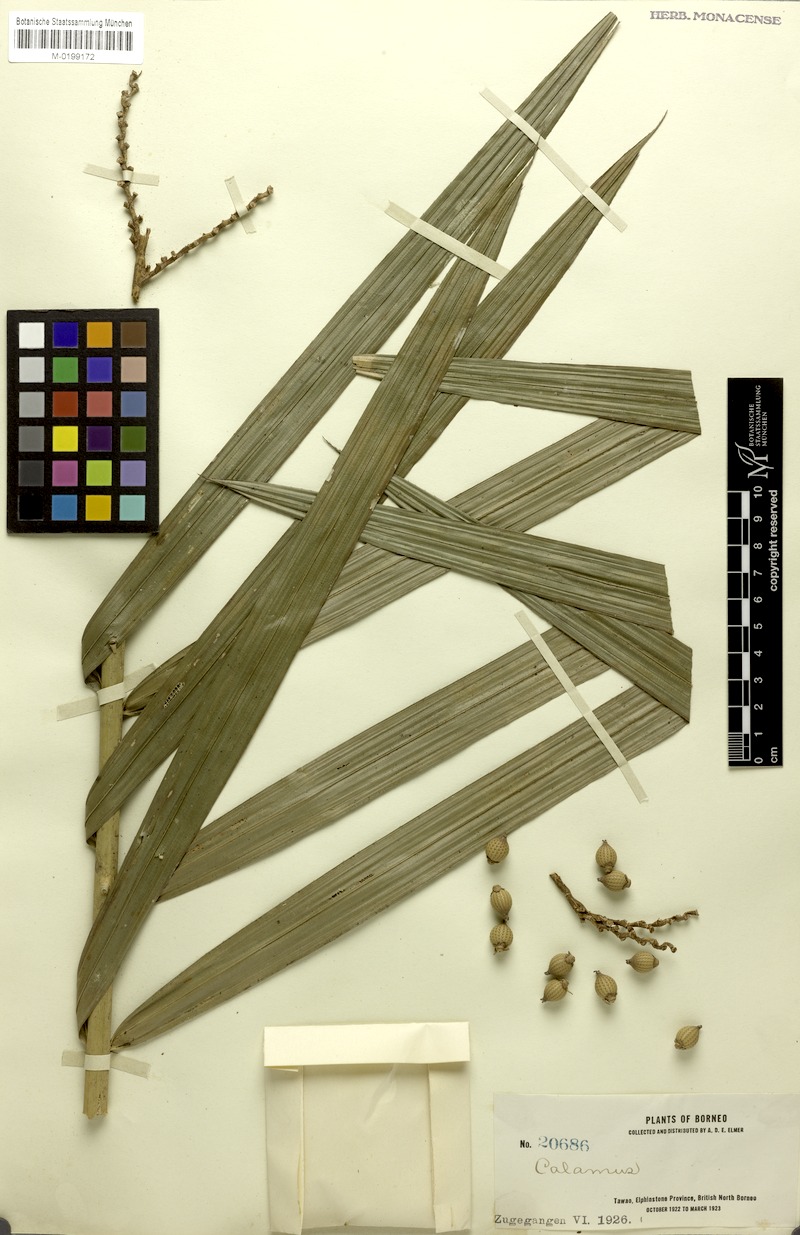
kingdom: Plantae
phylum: Tracheophyta
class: Liliopsida
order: Arecales
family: Arecaceae
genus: Calamus
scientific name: Calamus longipes
